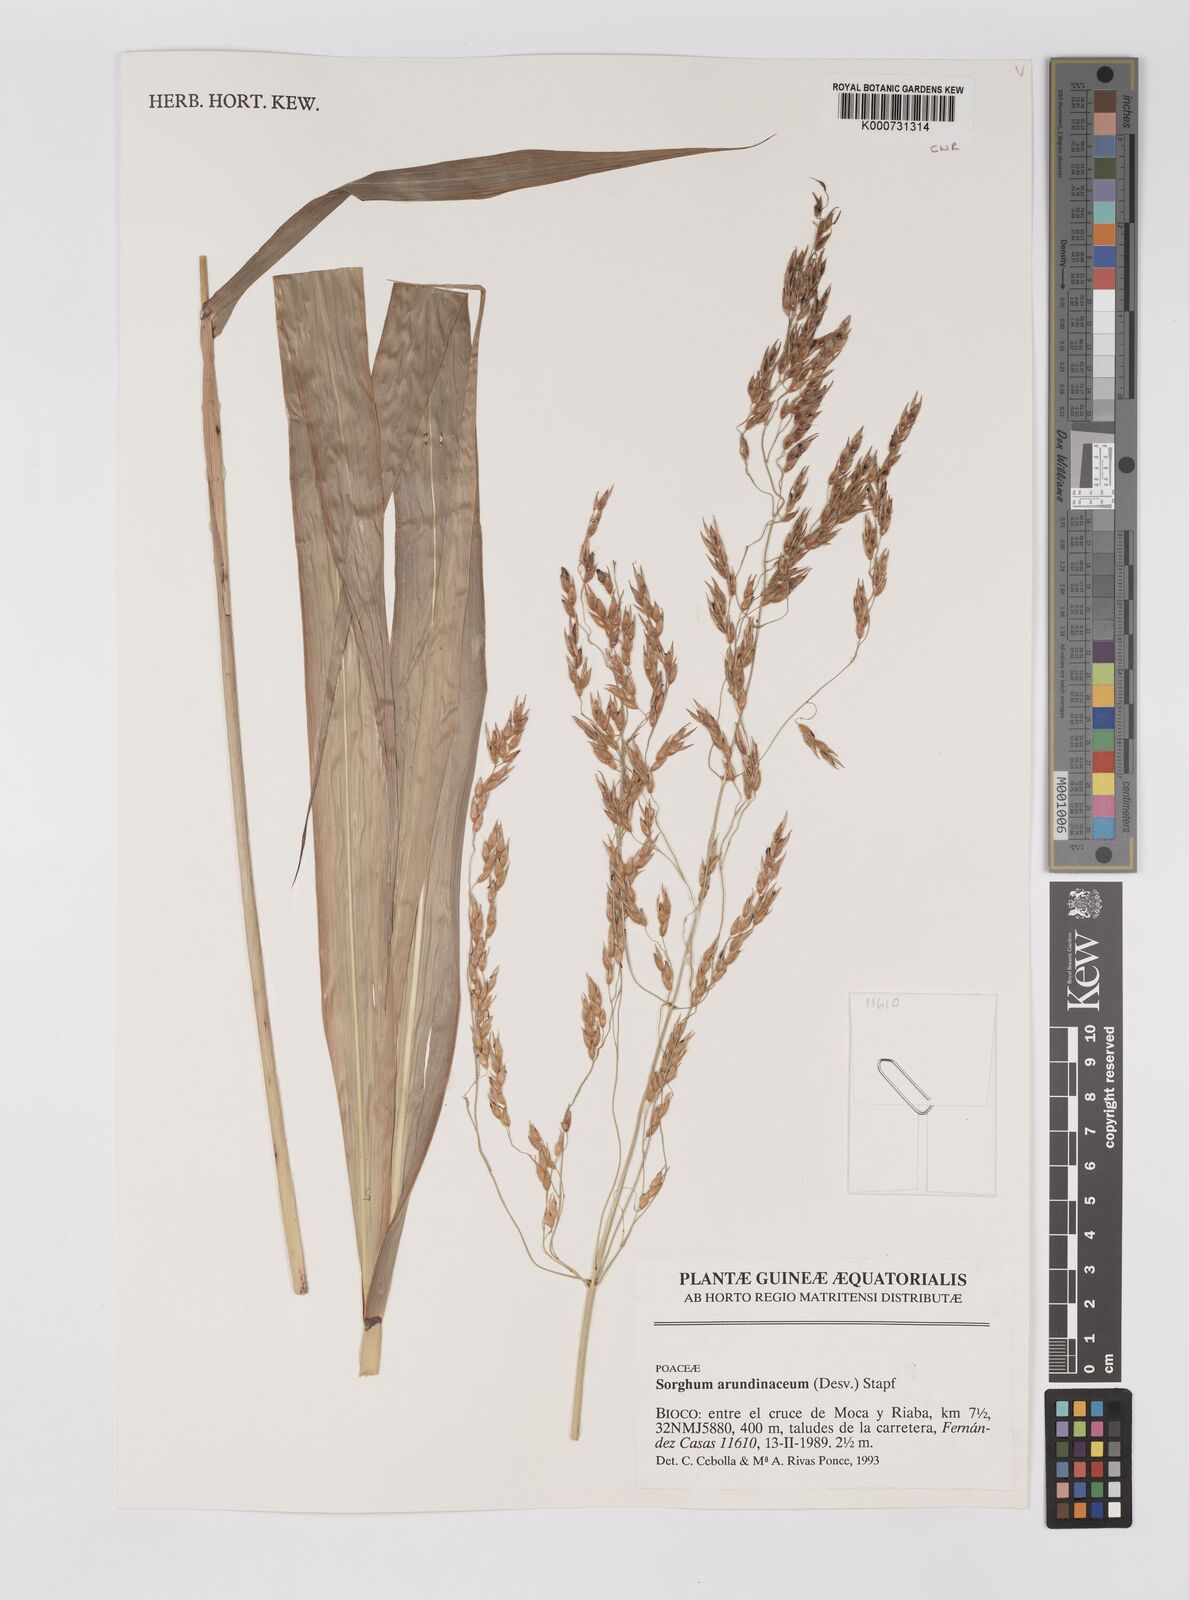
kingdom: Plantae
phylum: Tracheophyta
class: Liliopsida
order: Poales
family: Poaceae
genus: Sorghum
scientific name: Sorghum arundinaceum
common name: Sorghum
